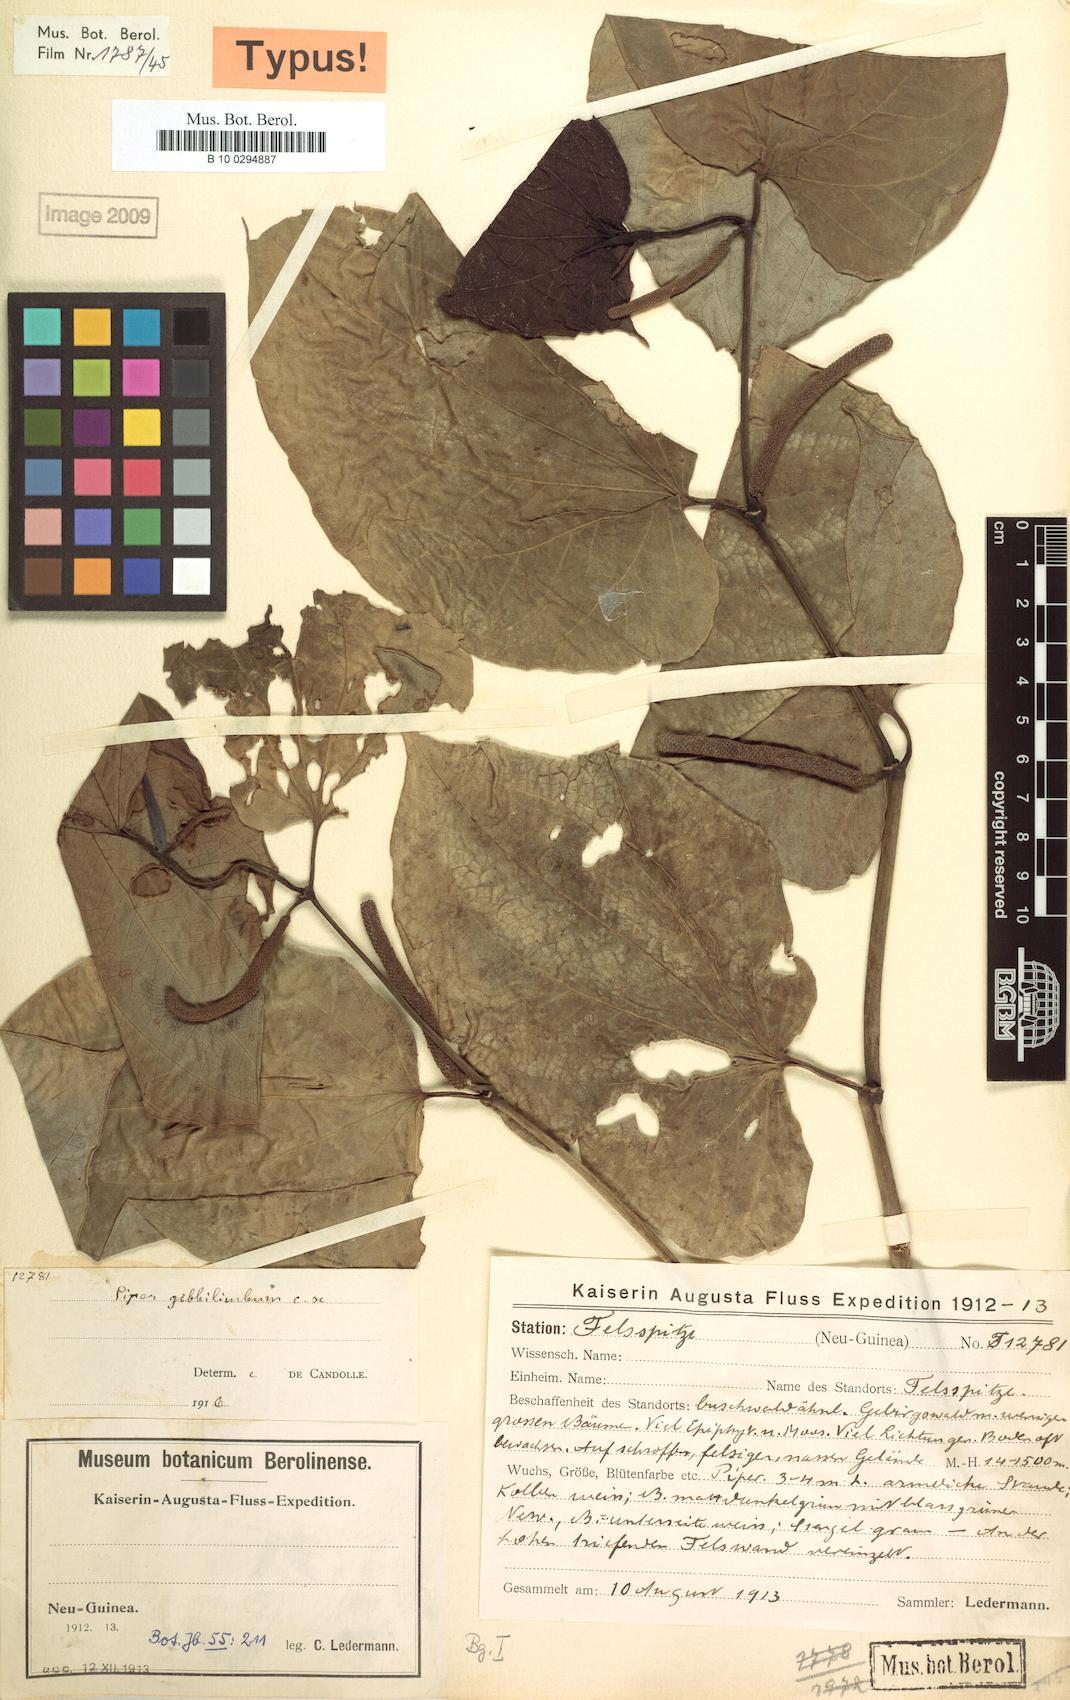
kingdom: Plantae
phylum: Tracheophyta
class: Magnoliopsida
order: Piperales
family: Piperaceae
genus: Piper
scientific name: Piper gibbilimbum
